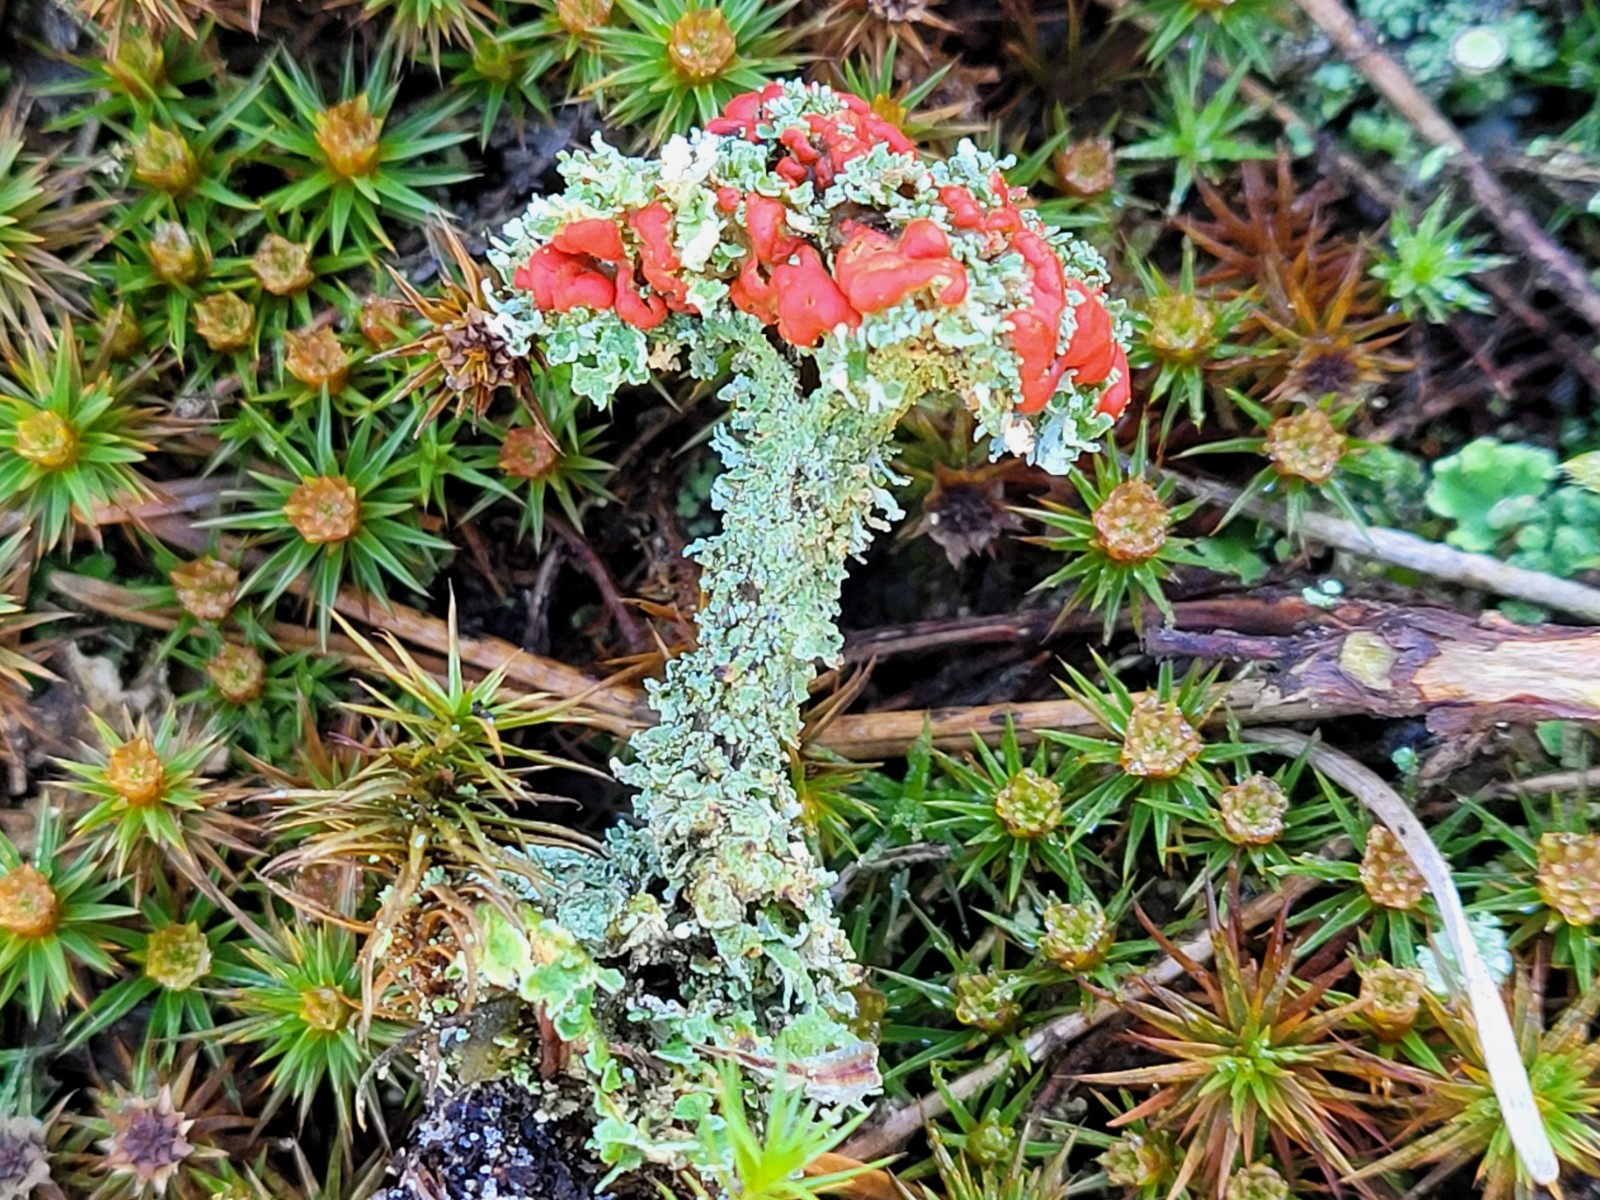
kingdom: Fungi
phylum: Ascomycota
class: Lecanoromycetes
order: Lecanorales
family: Cladoniaceae
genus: Cladonia
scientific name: Cladonia diversa
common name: rød bægerlav
